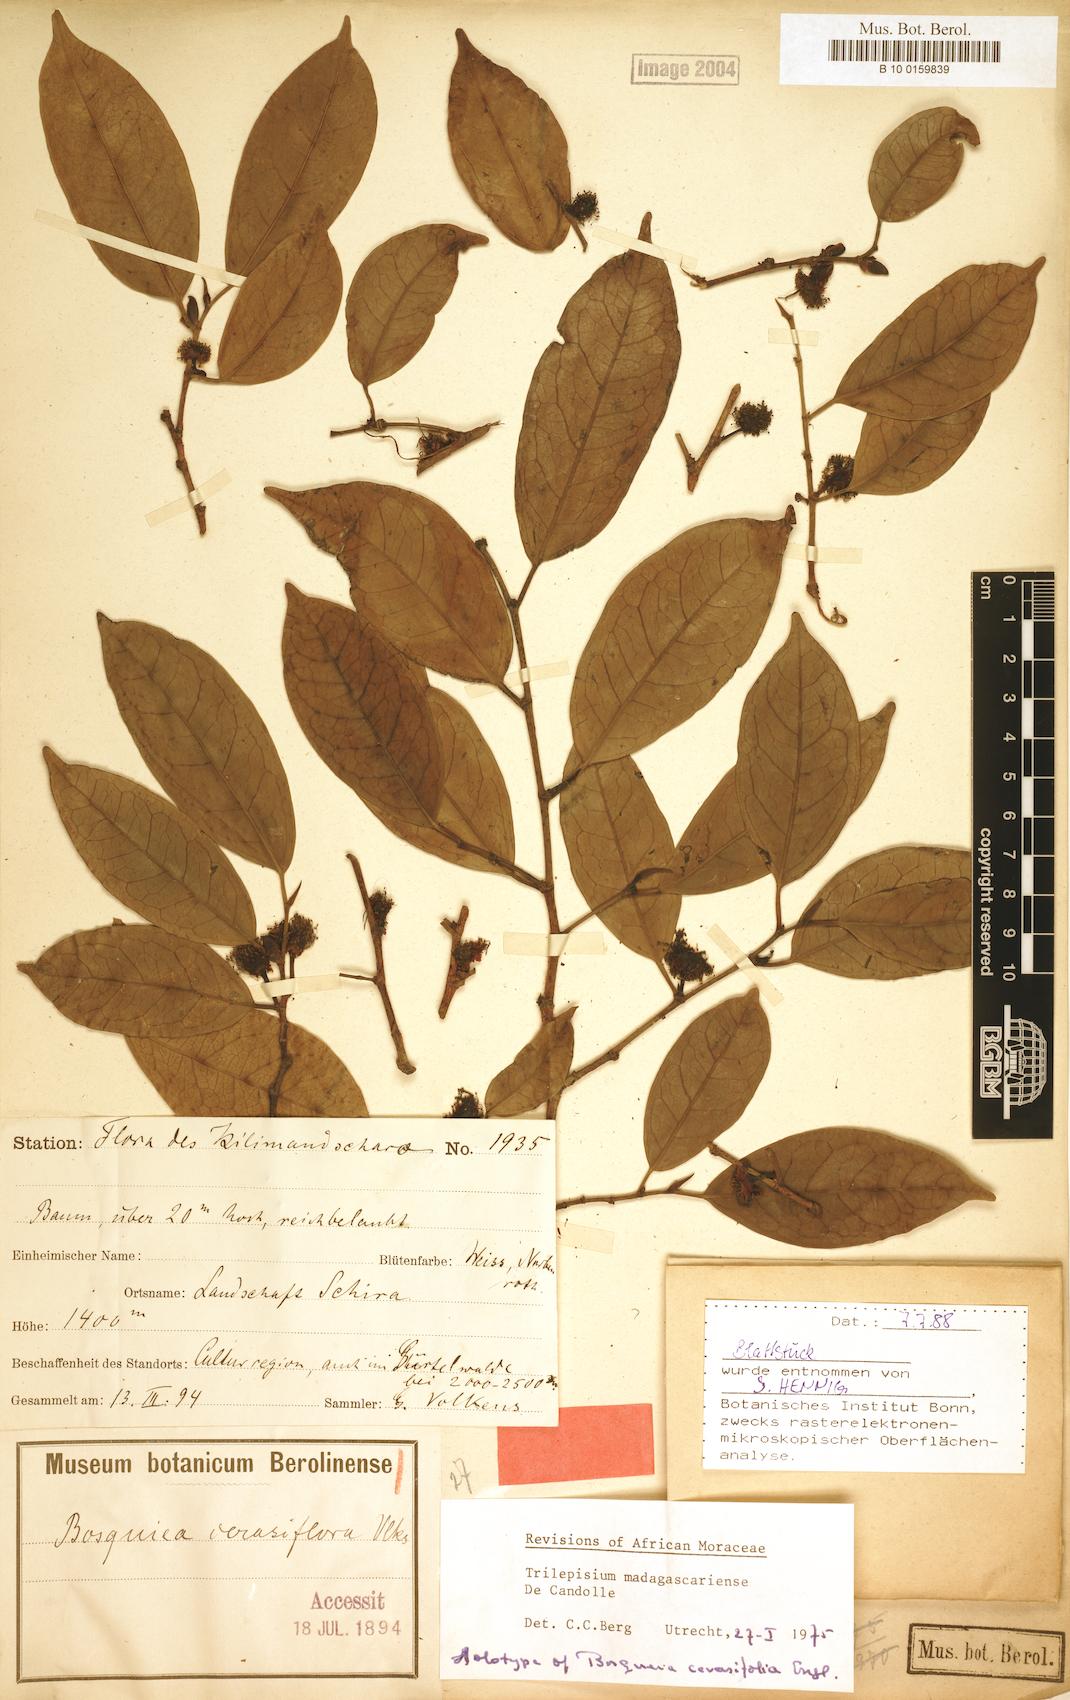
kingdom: Plantae
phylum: Tracheophyta
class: Magnoliopsida
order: Rosales
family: Moraceae
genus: Trilepisium
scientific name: Trilepisium madagascariense
